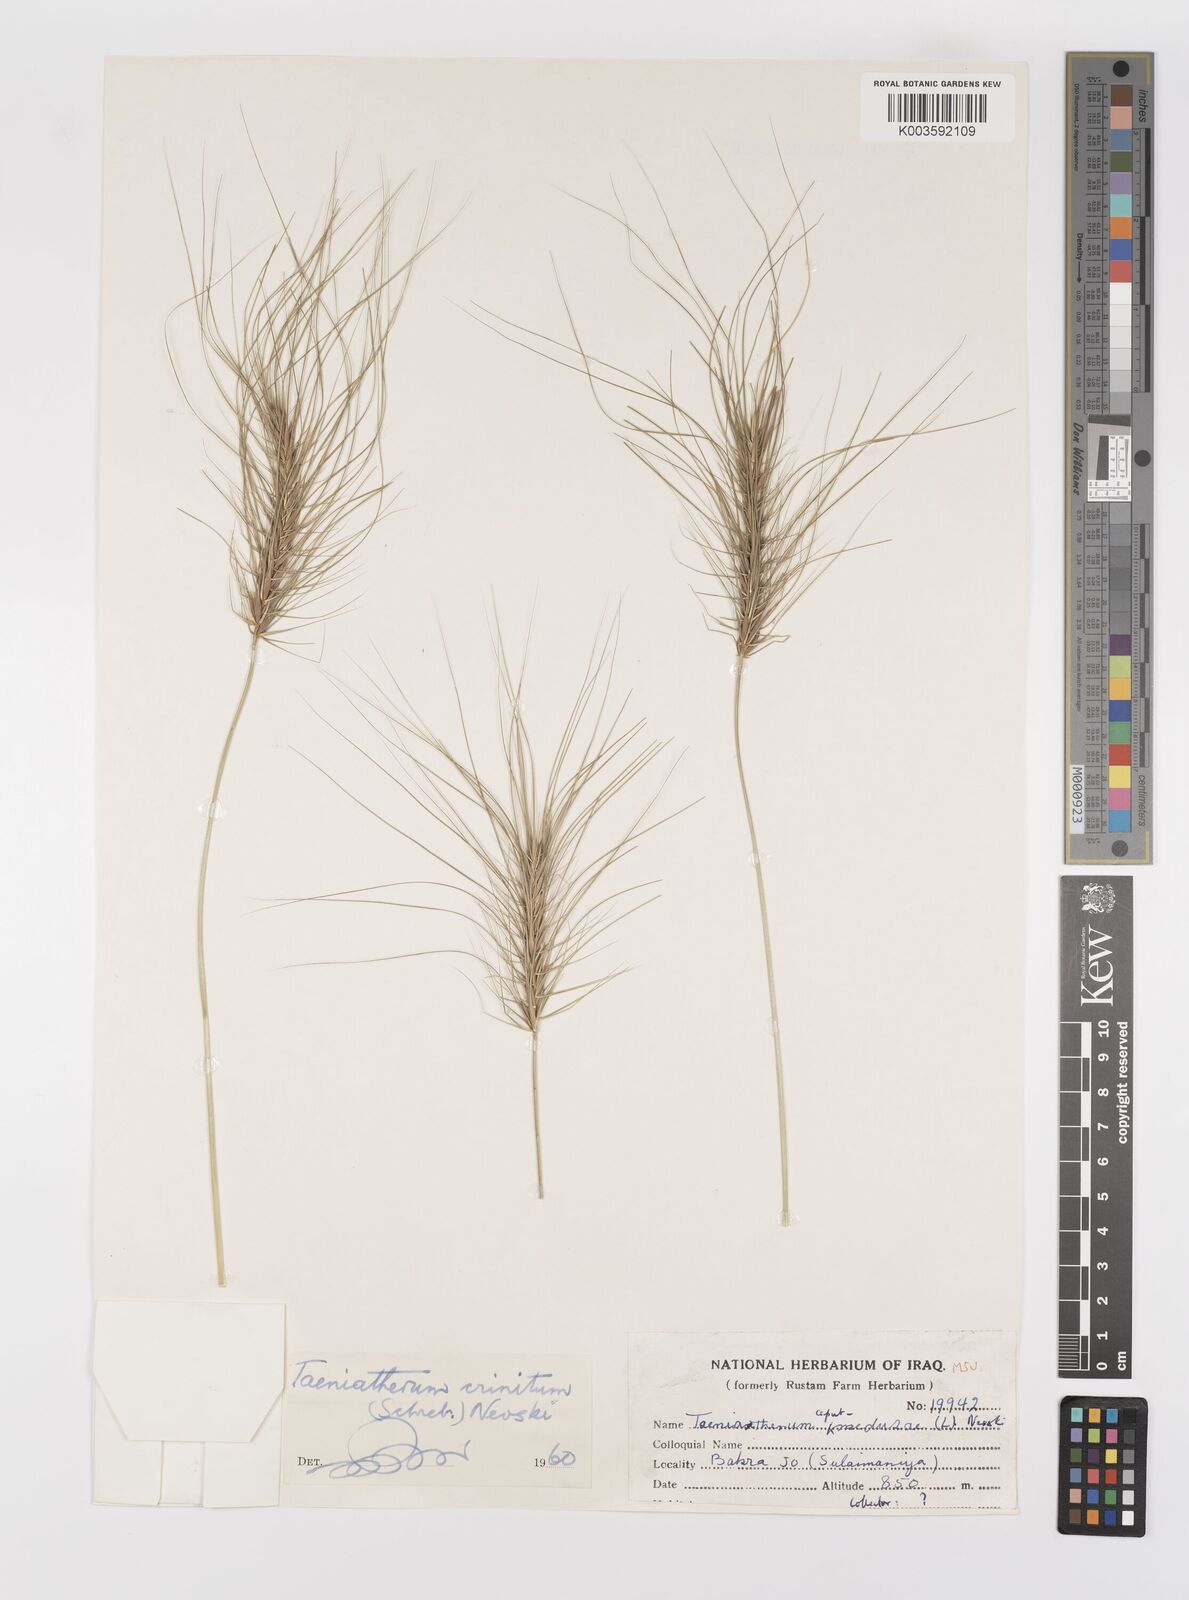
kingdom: Plantae
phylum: Tracheophyta
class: Liliopsida
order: Poales
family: Poaceae
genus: Taeniatherum
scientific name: Taeniatherum caput-medusae
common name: Medusahead
